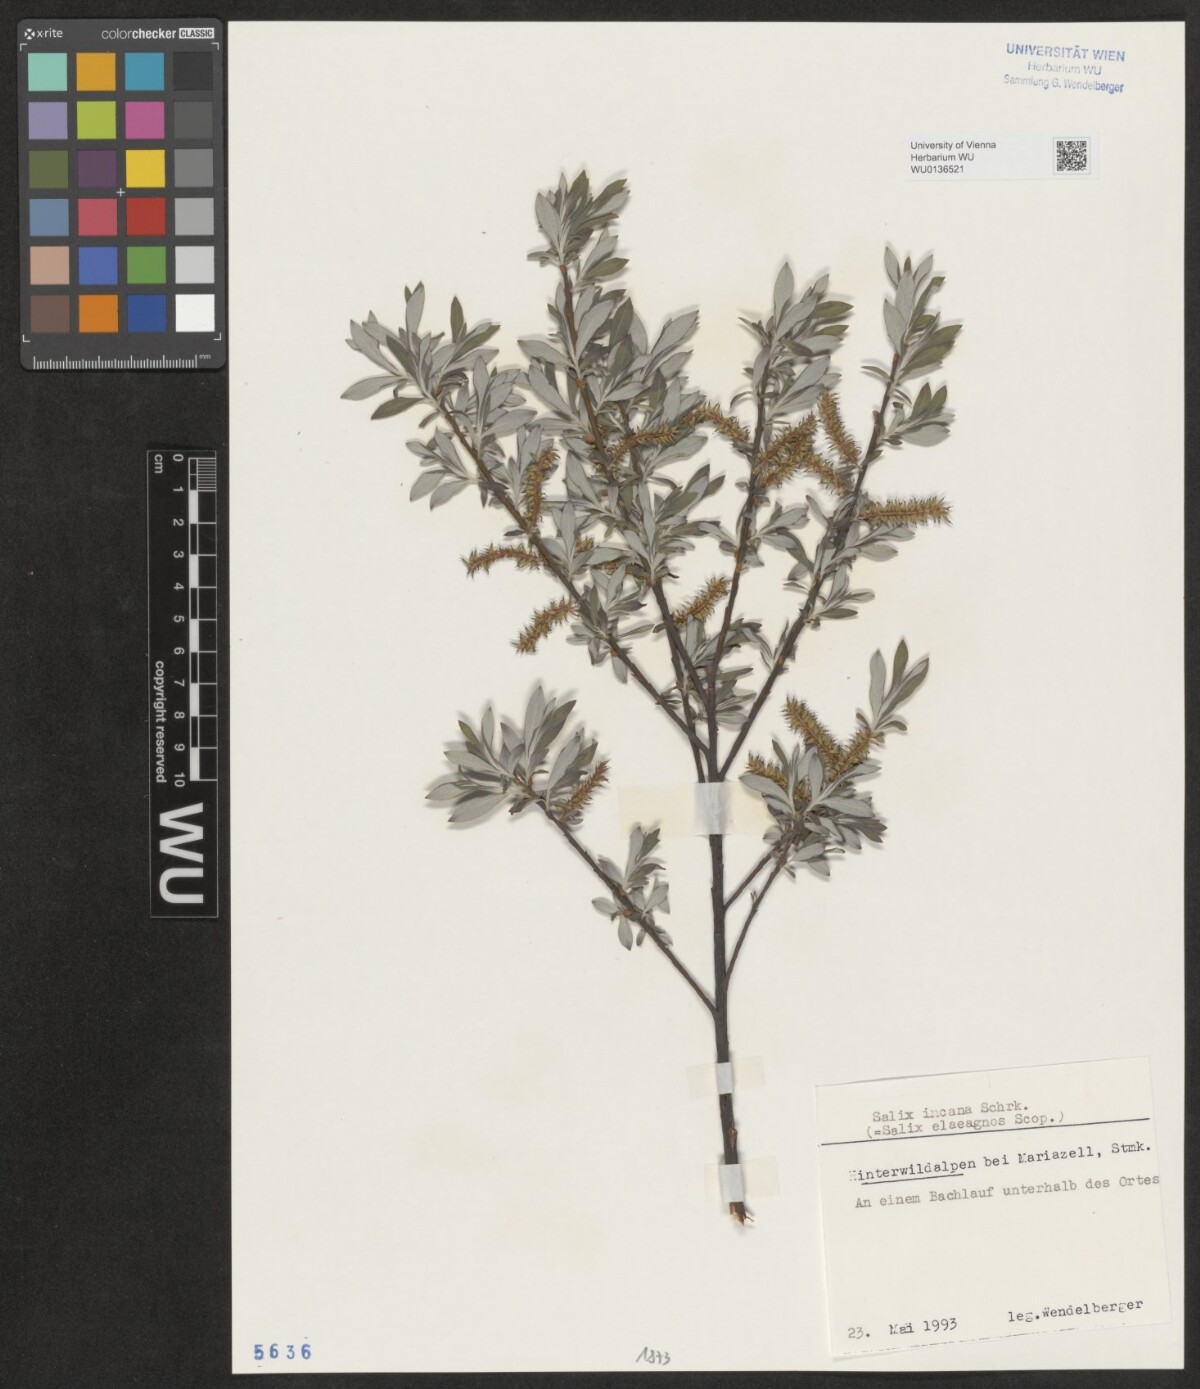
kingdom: Plantae
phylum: Tracheophyta
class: Magnoliopsida
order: Malpighiales
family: Salicaceae
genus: Salix
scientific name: Salix eleagnos
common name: Elaeagnus willow
